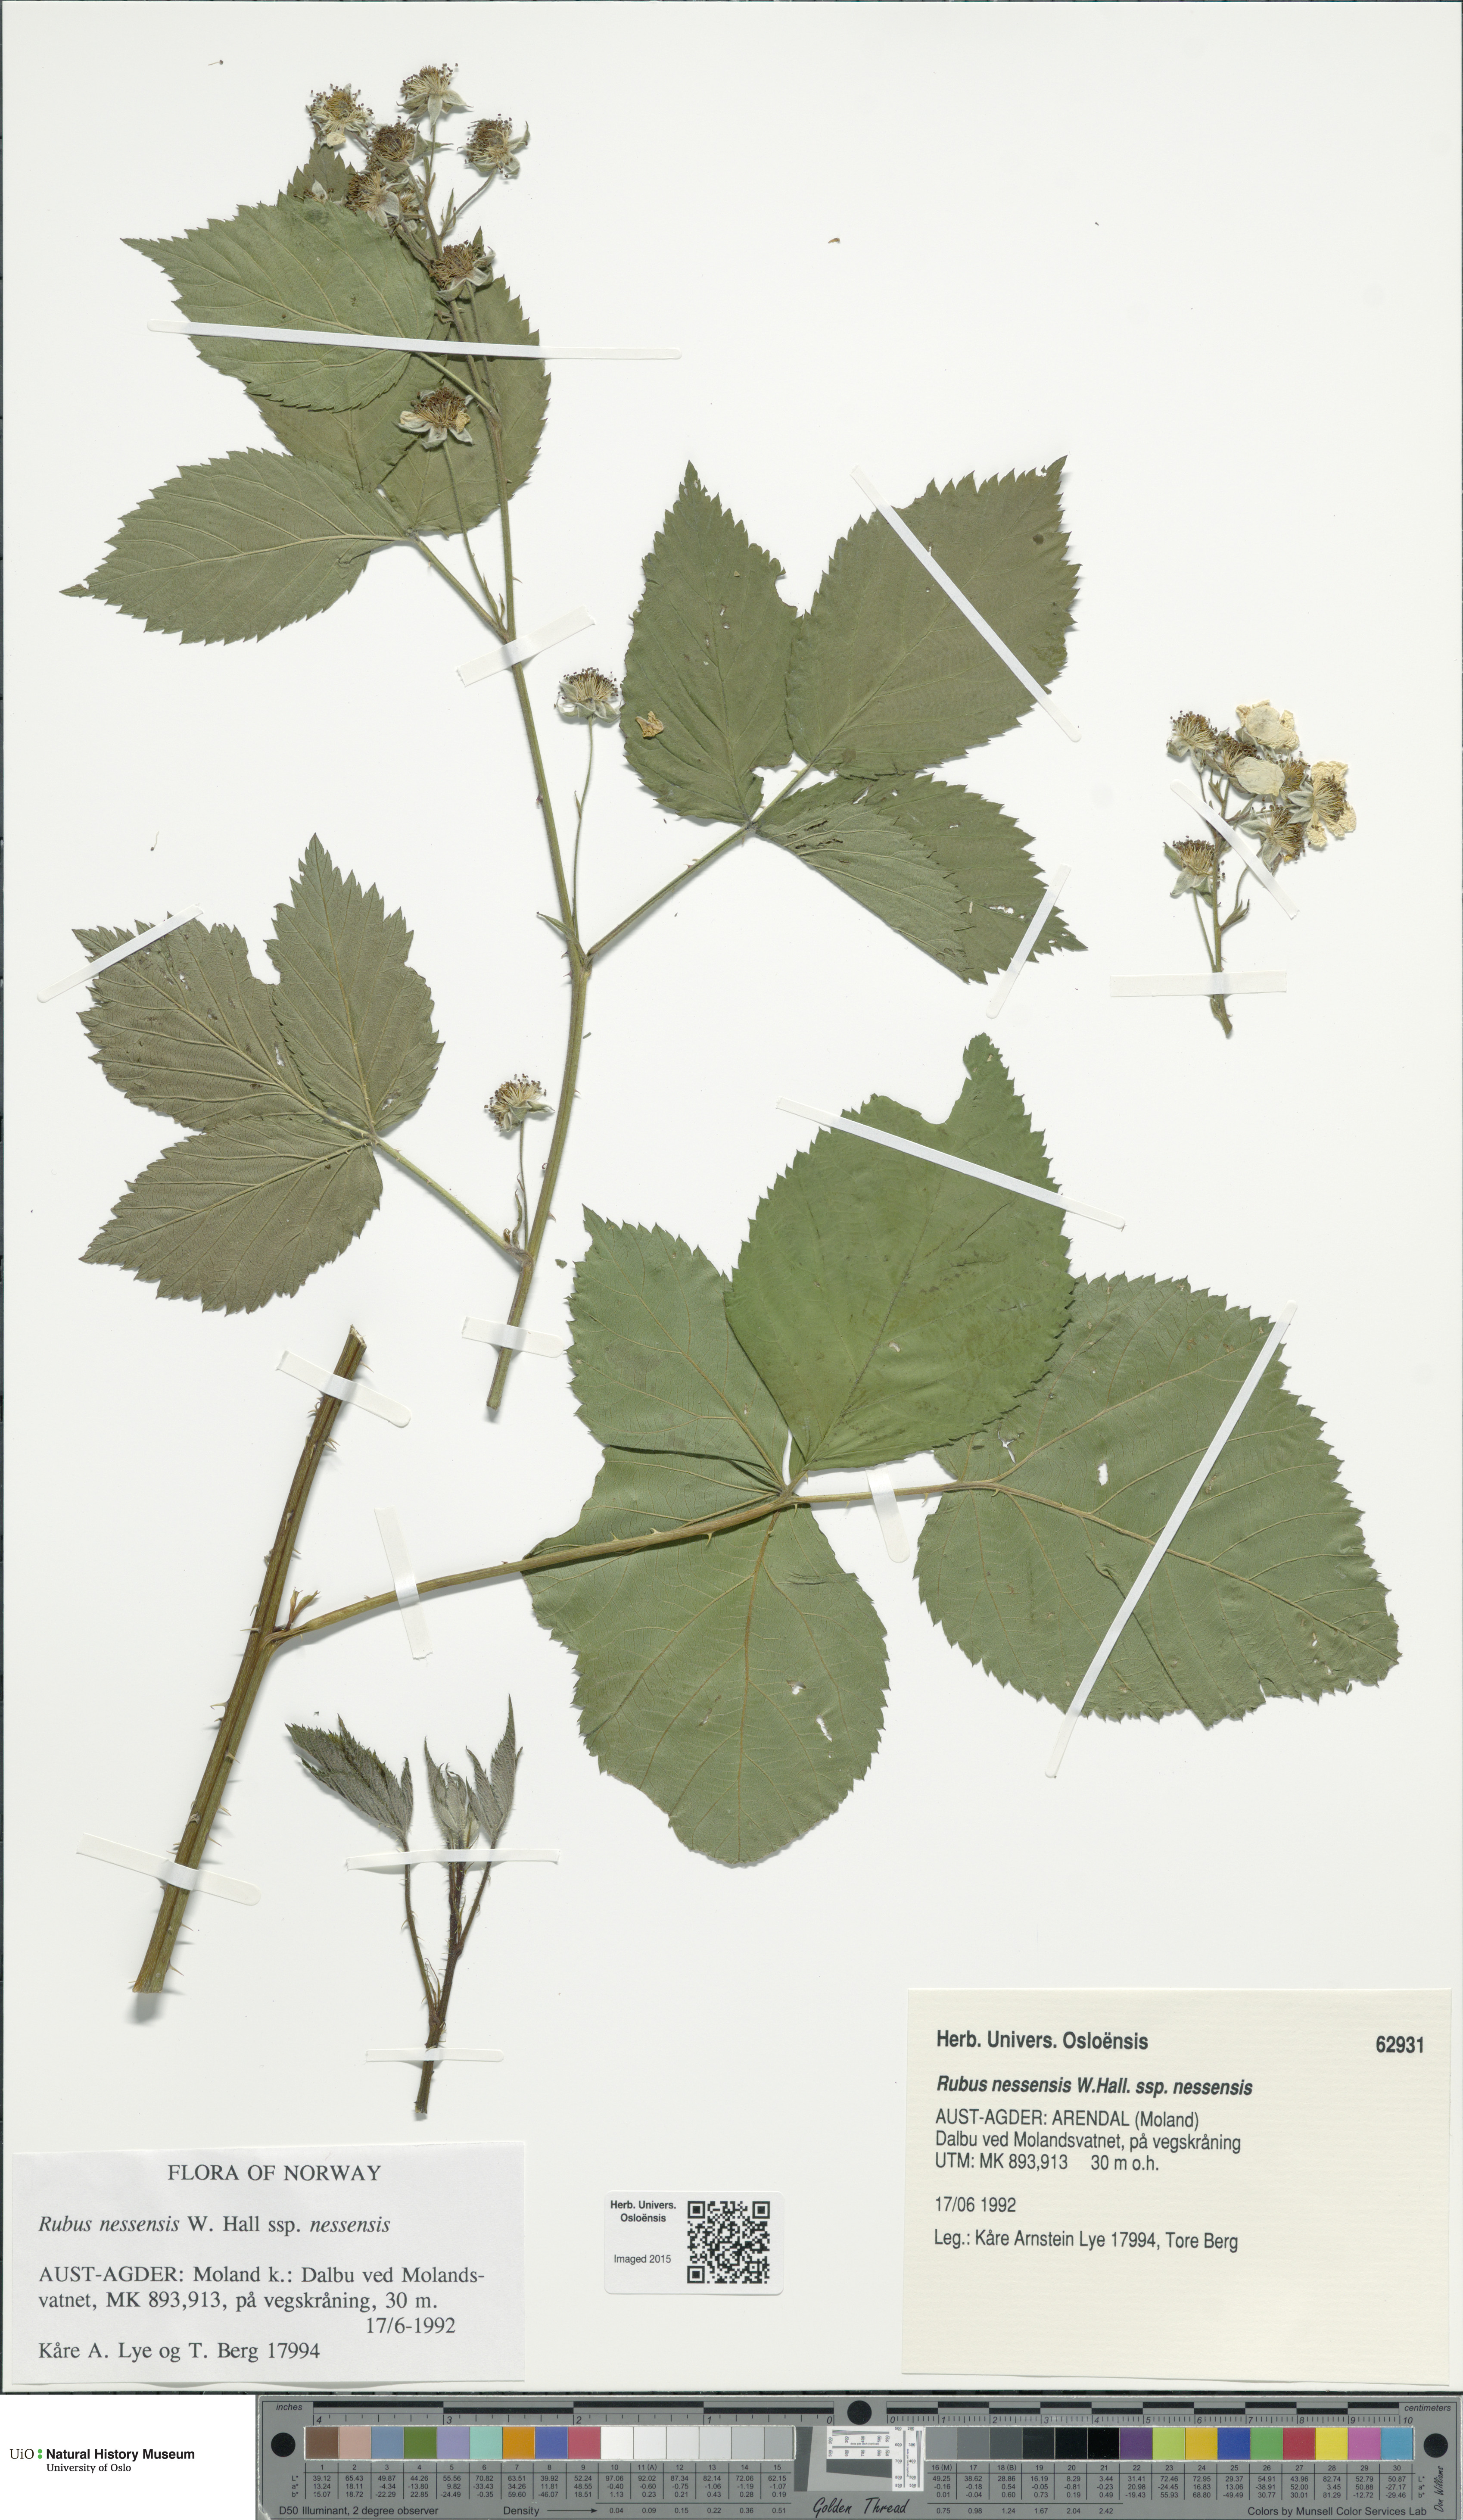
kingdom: Plantae
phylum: Tracheophyta
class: Magnoliopsida
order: Rosales
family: Rosaceae
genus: Rubus
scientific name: Rubus polonicus
